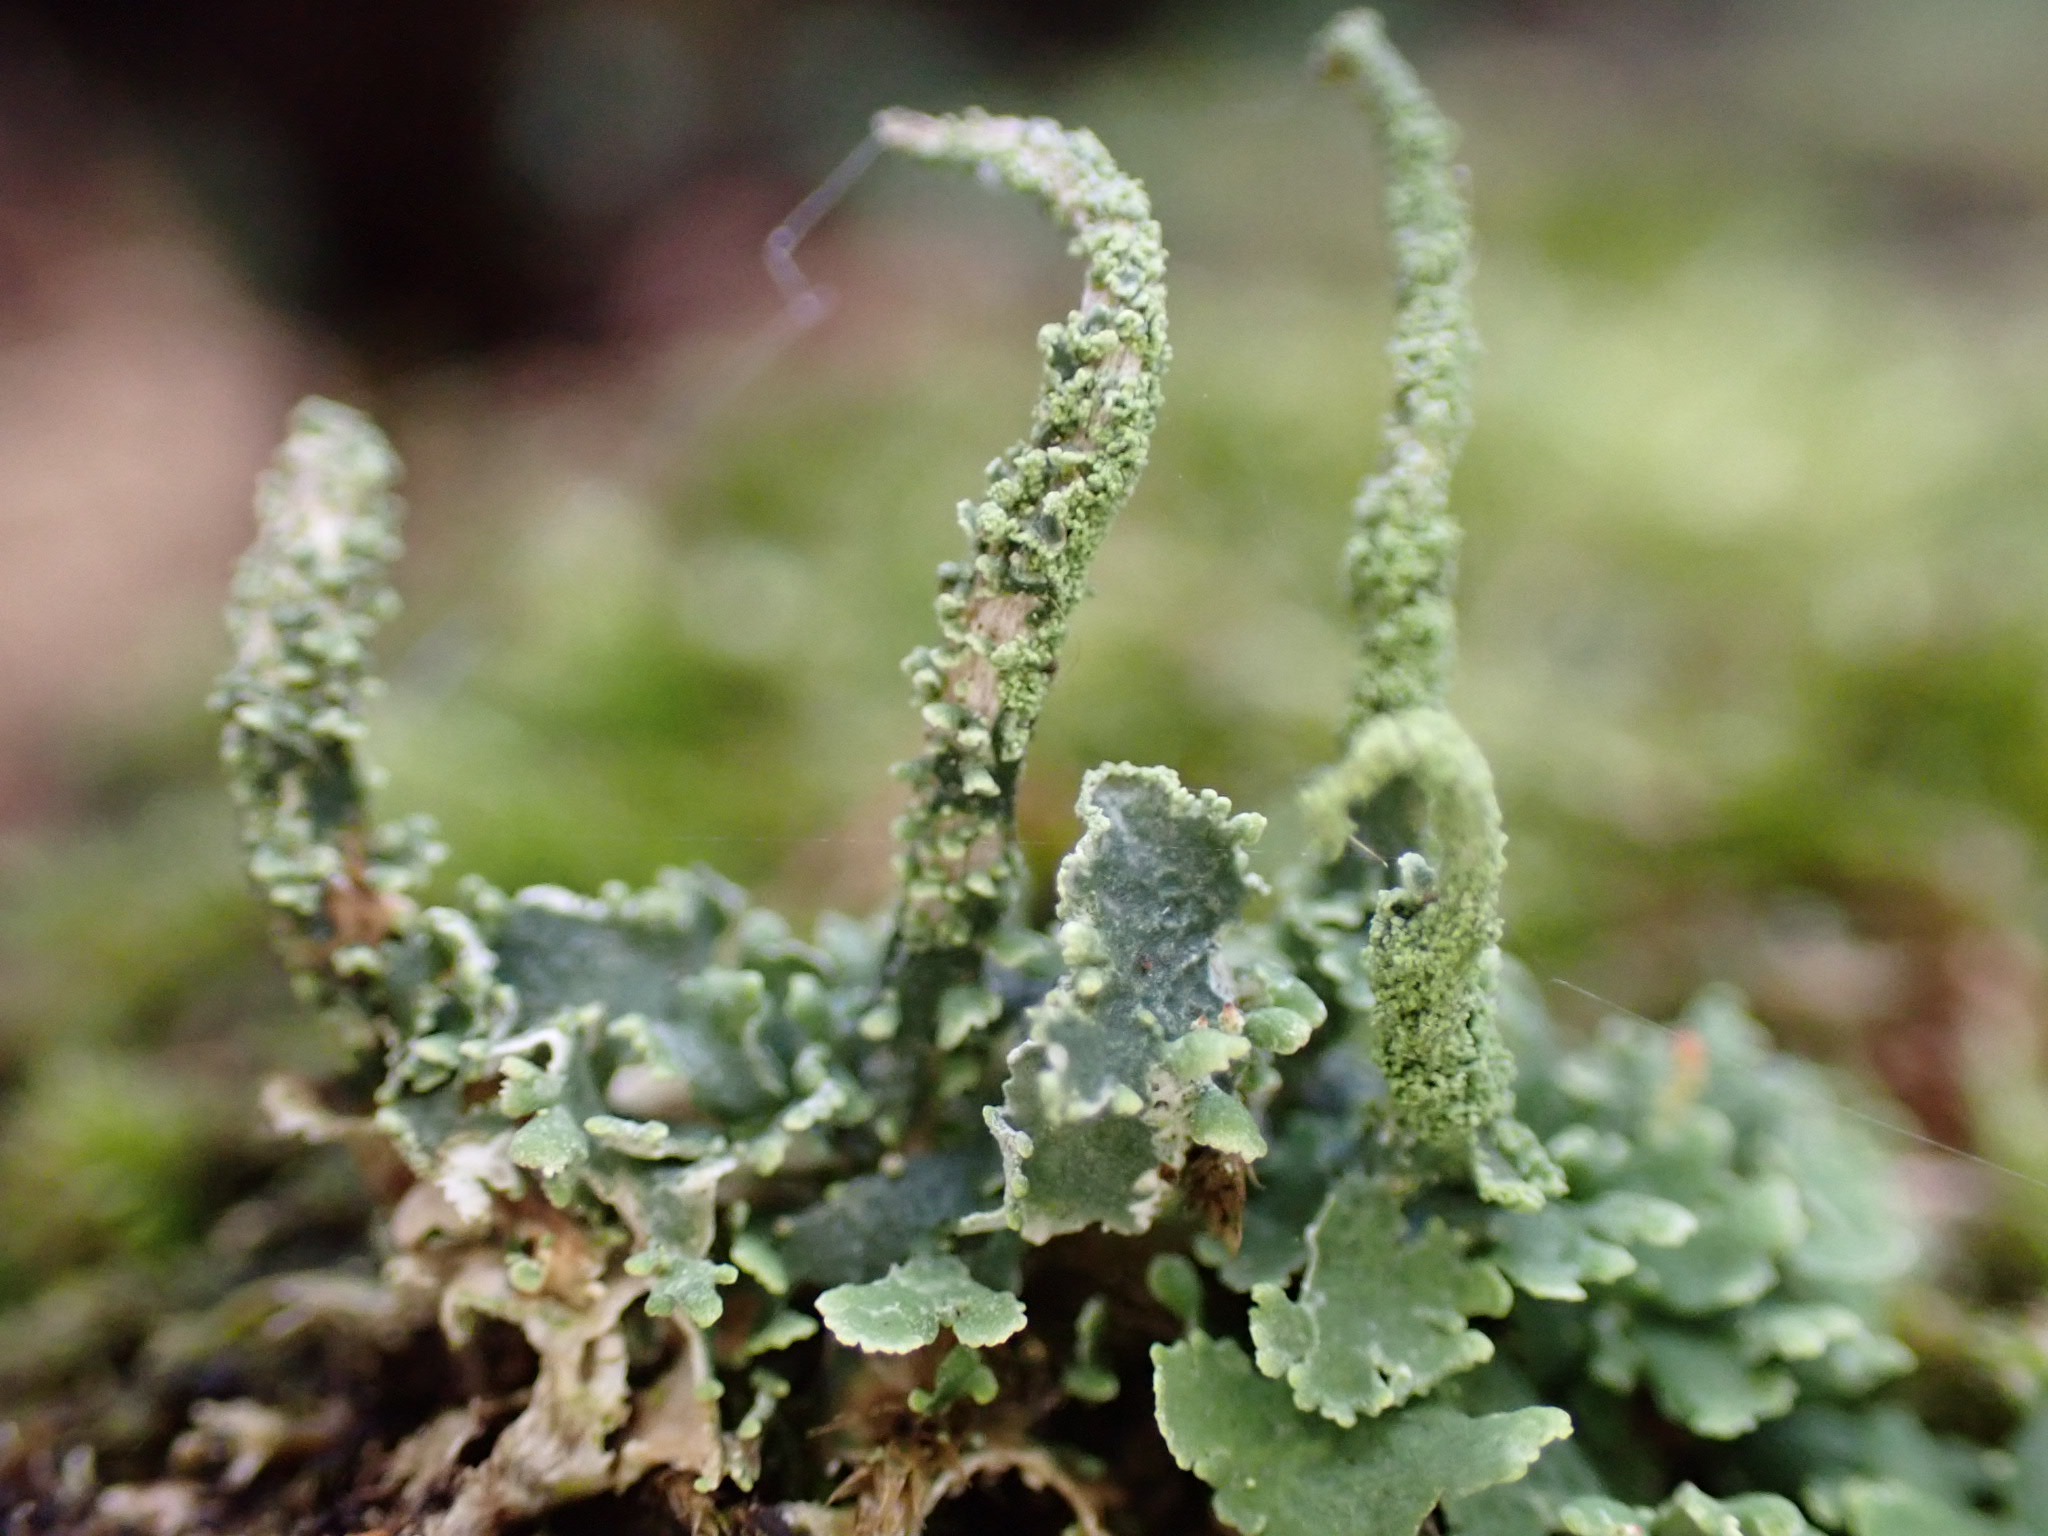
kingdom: Fungi
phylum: Ascomycota
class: Lecanoromycetes
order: Lecanorales
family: Cladoniaceae
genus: Cladonia
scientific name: Cladonia coniocraea
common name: træfods-bægerlav
